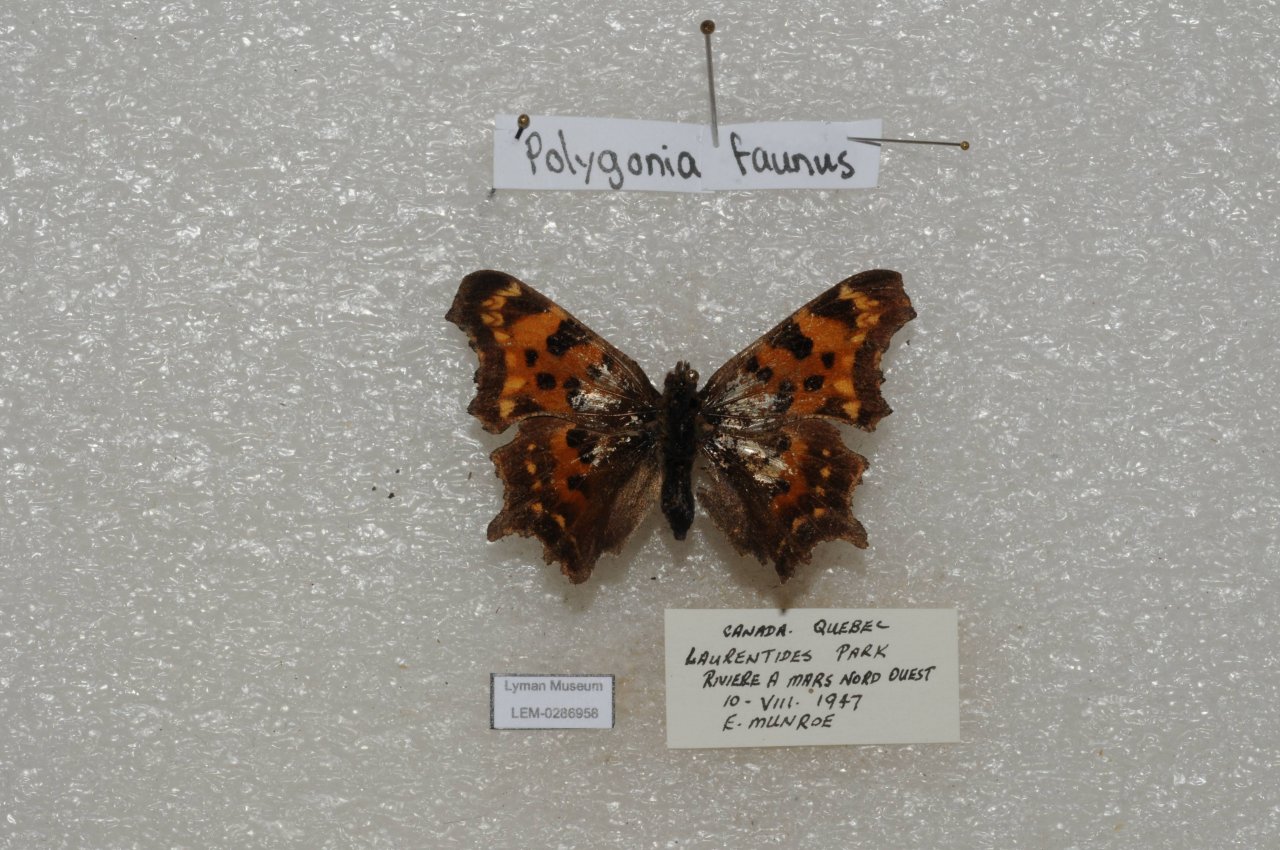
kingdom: Animalia
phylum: Arthropoda
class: Insecta
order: Lepidoptera
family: Nymphalidae
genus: Polygonia
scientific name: Polygonia faunus
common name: Green Comma
